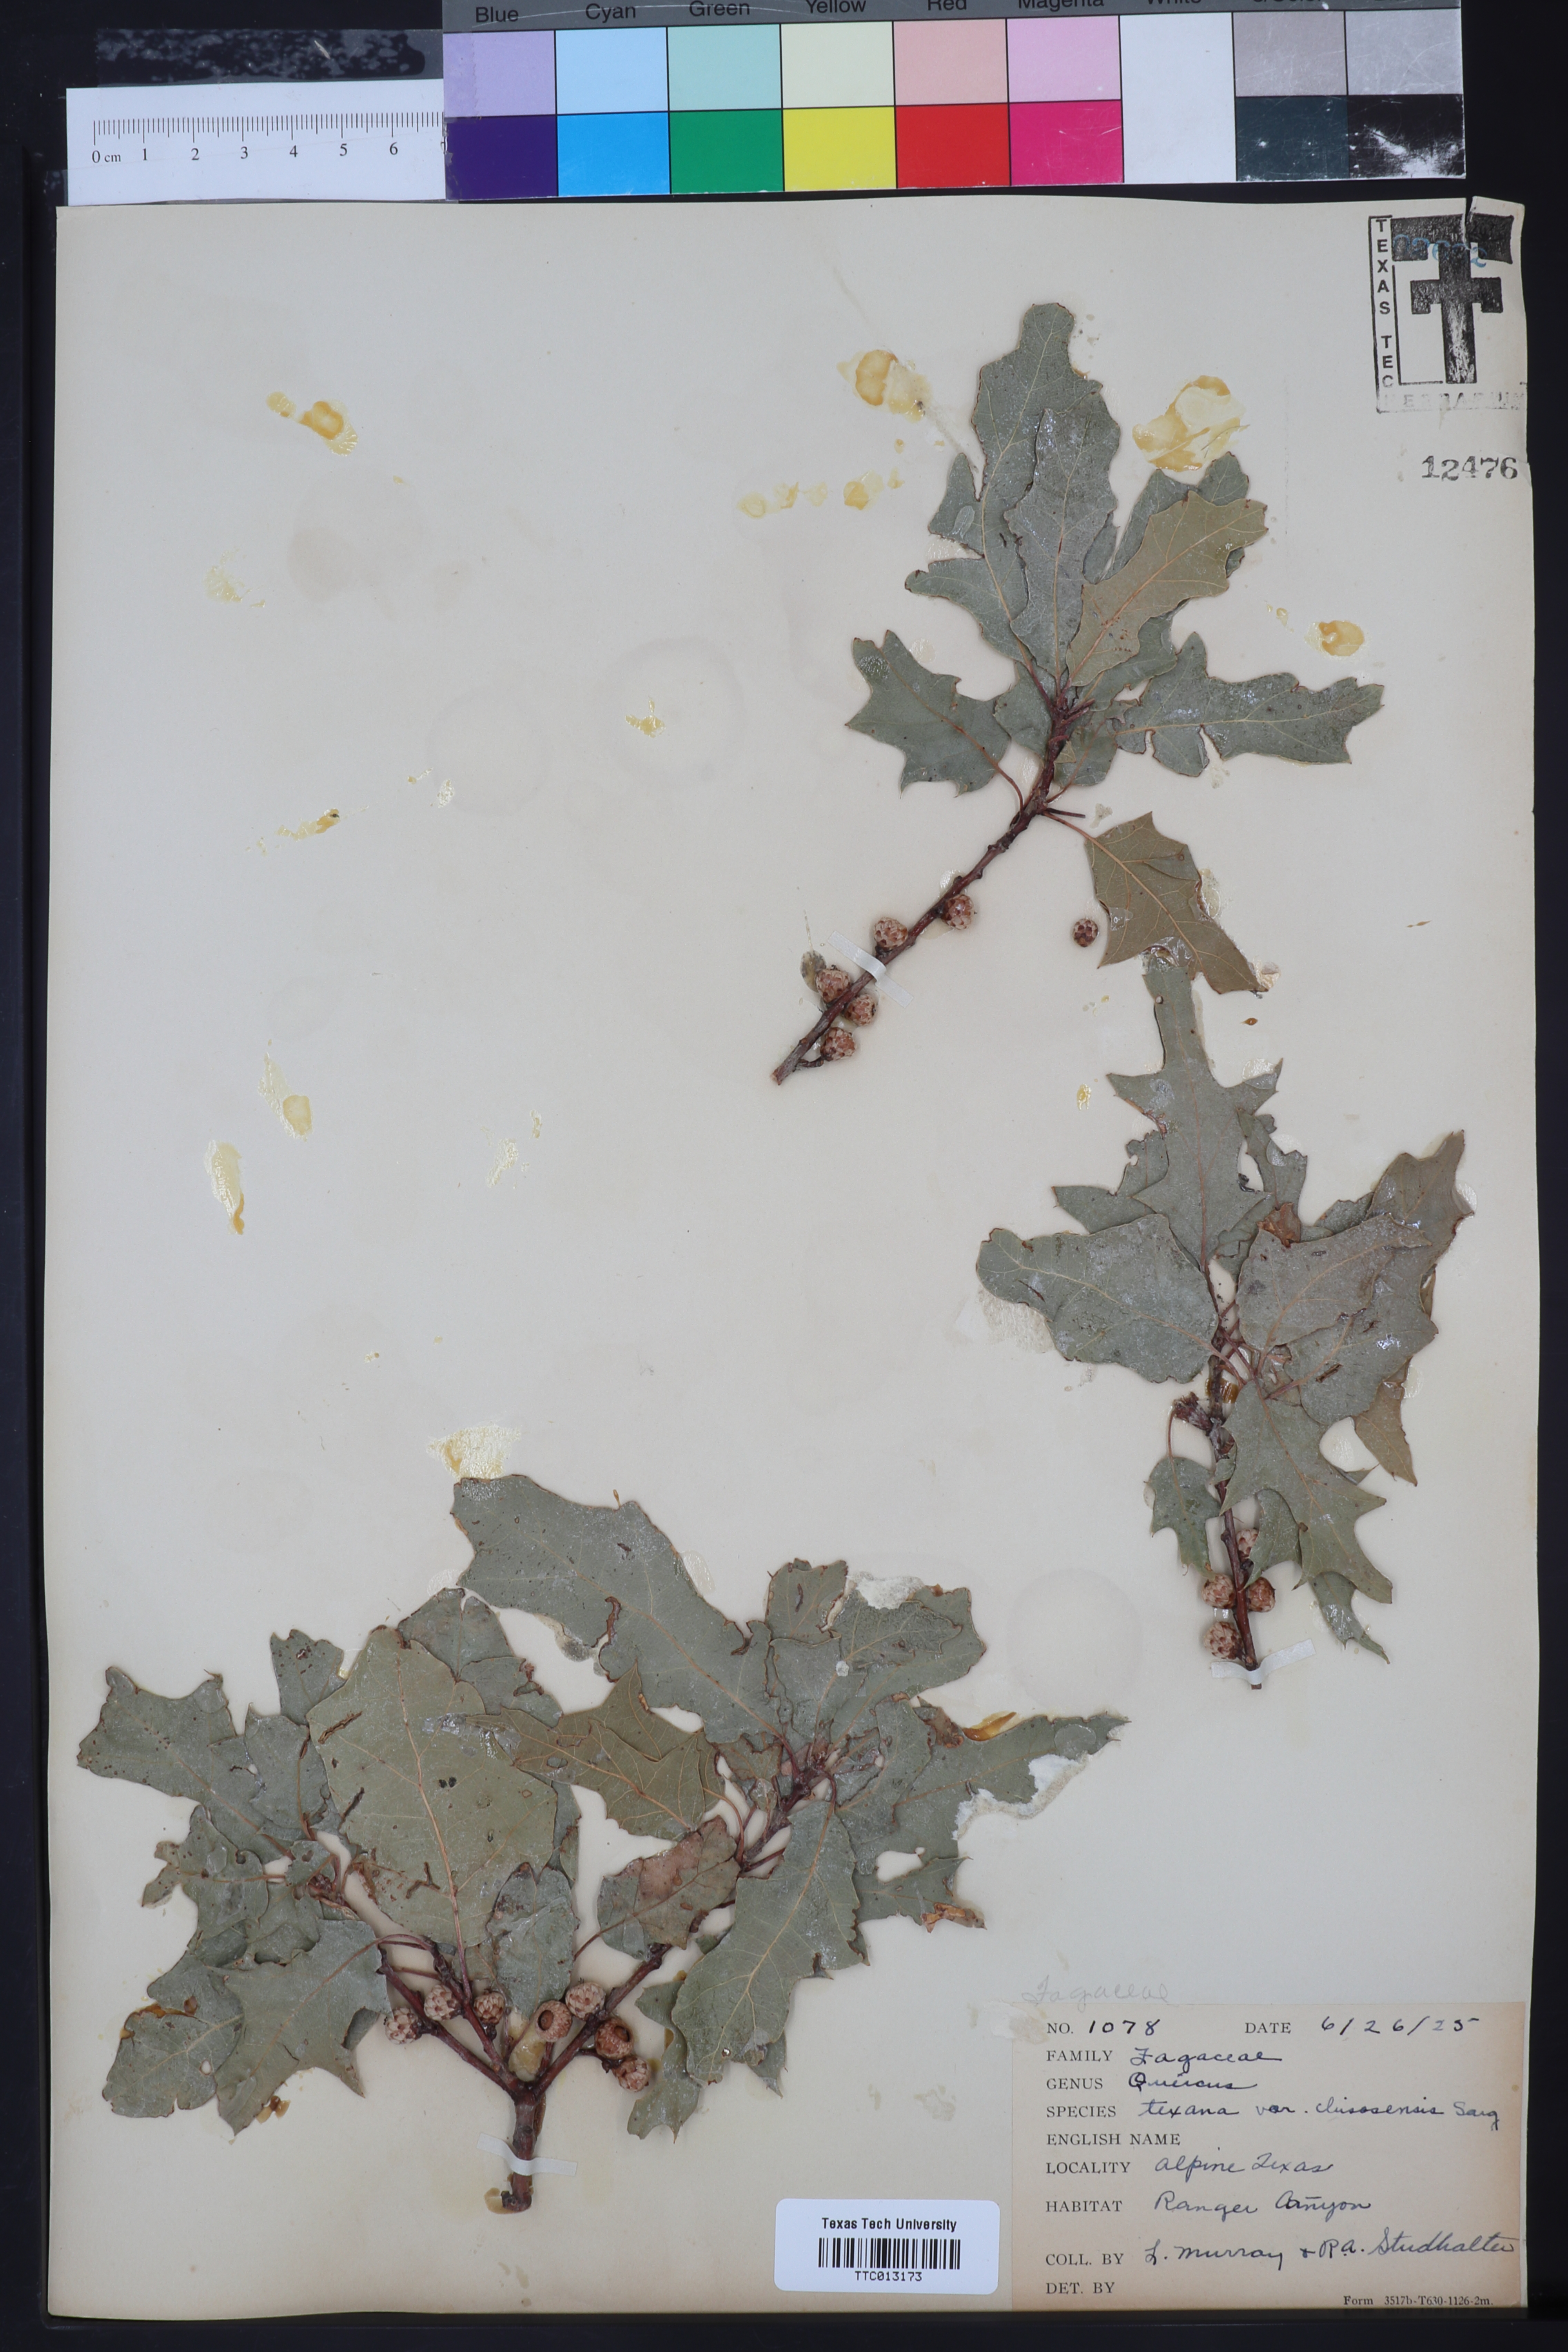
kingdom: Plantae
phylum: Tracheophyta
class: Magnoliopsida
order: Fagales
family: Fagaceae
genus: Quercus
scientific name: Quercus texana
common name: Nuttall oak
